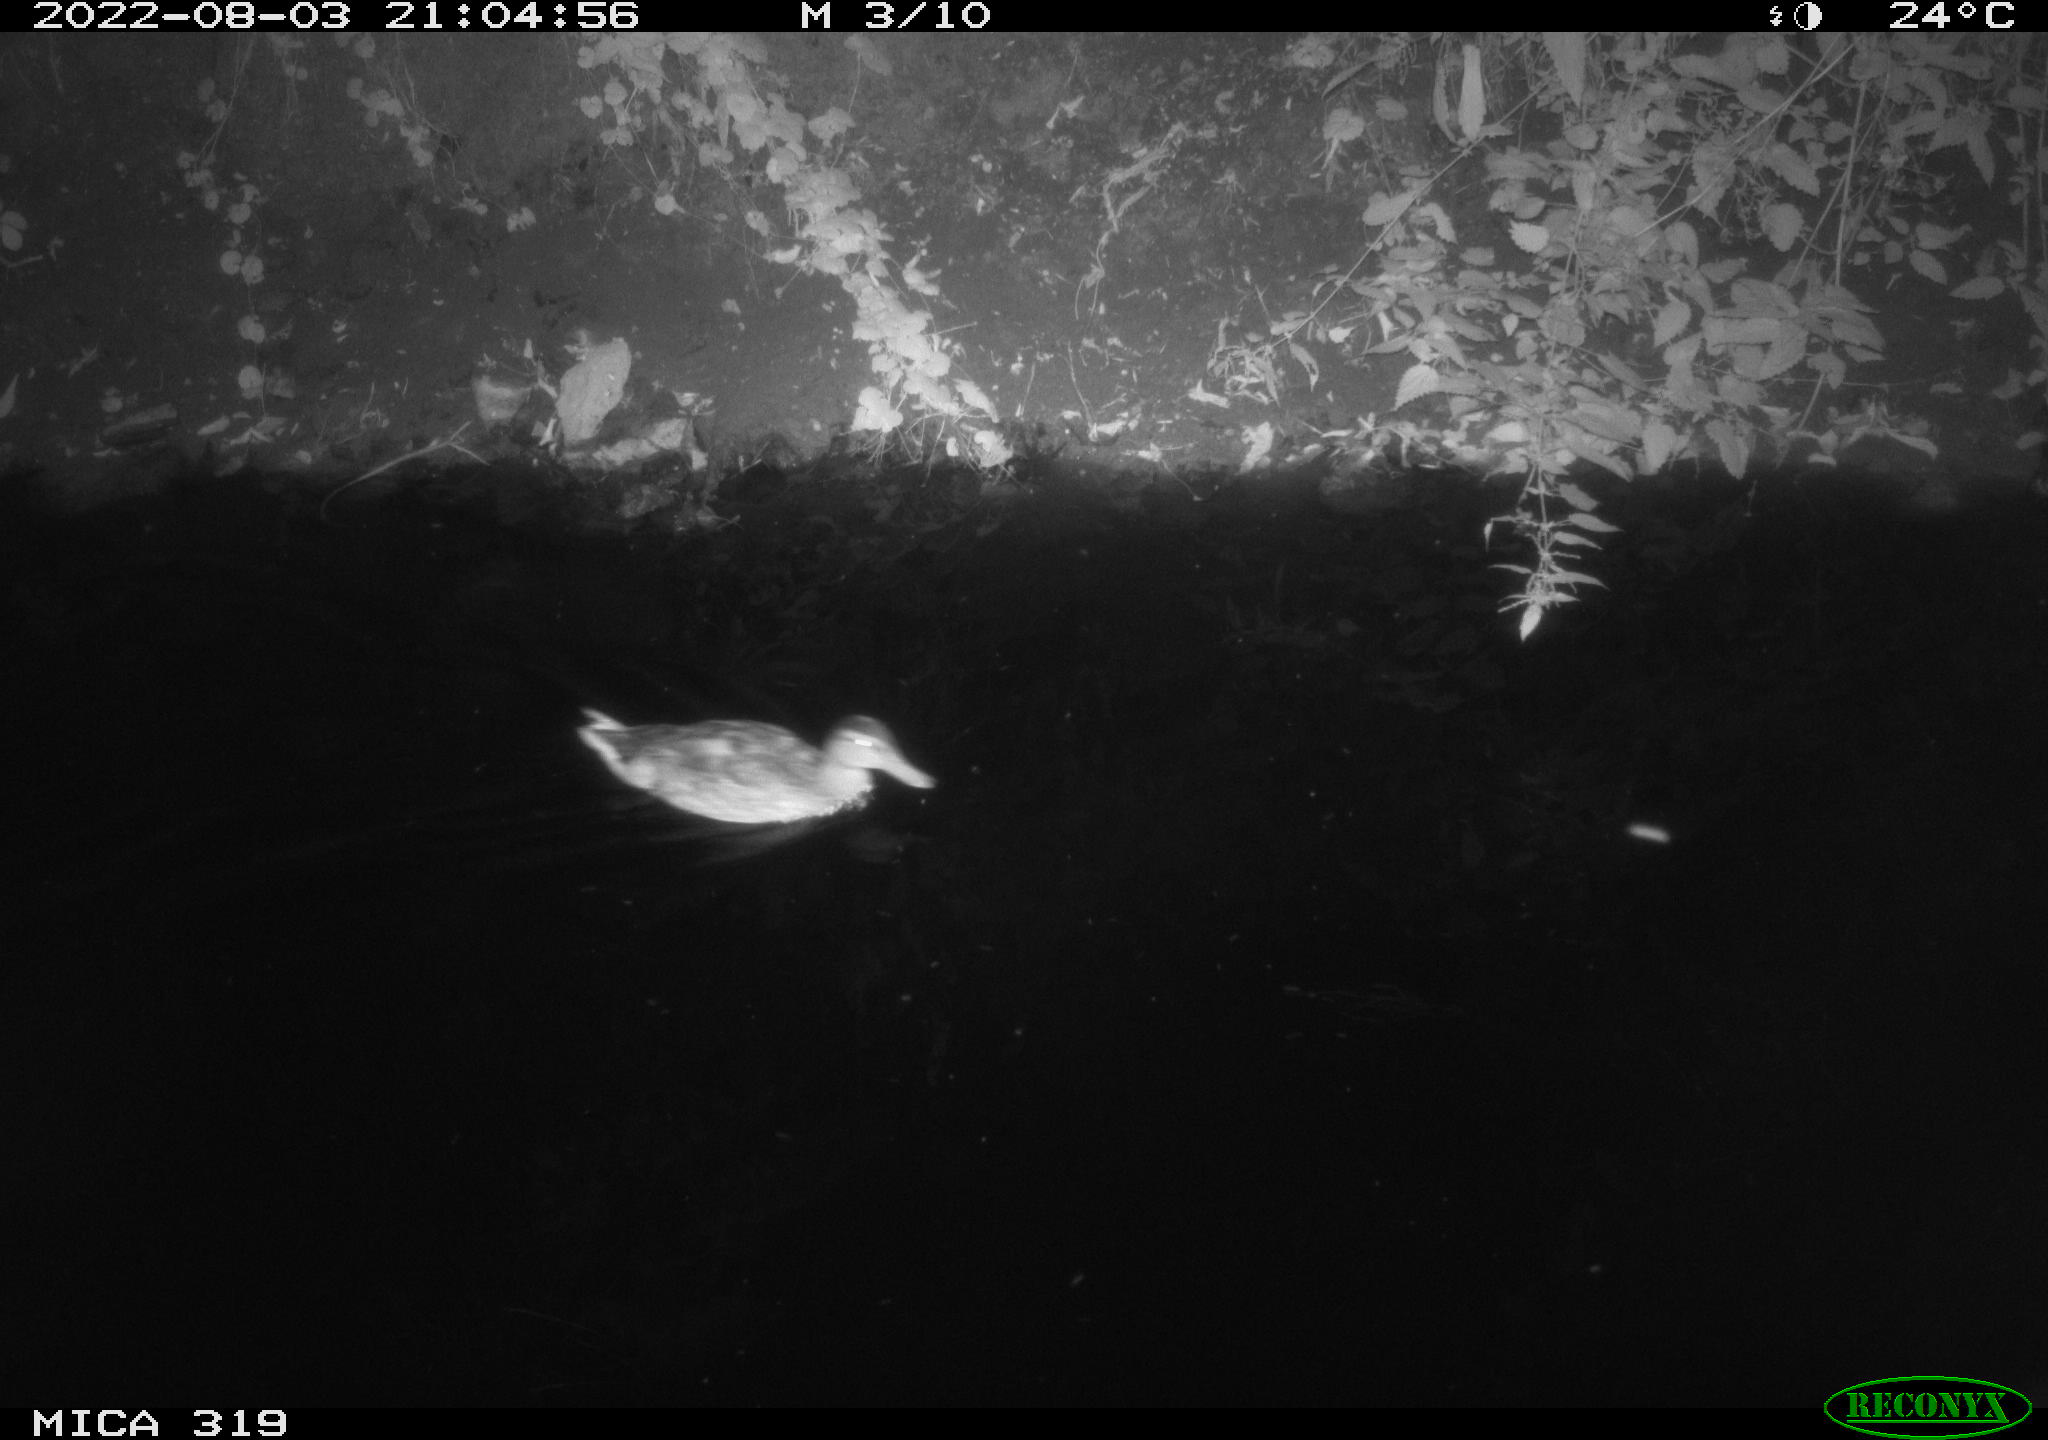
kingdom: Animalia
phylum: Chordata
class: Aves
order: Anseriformes
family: Anatidae
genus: Anas
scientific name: Anas
